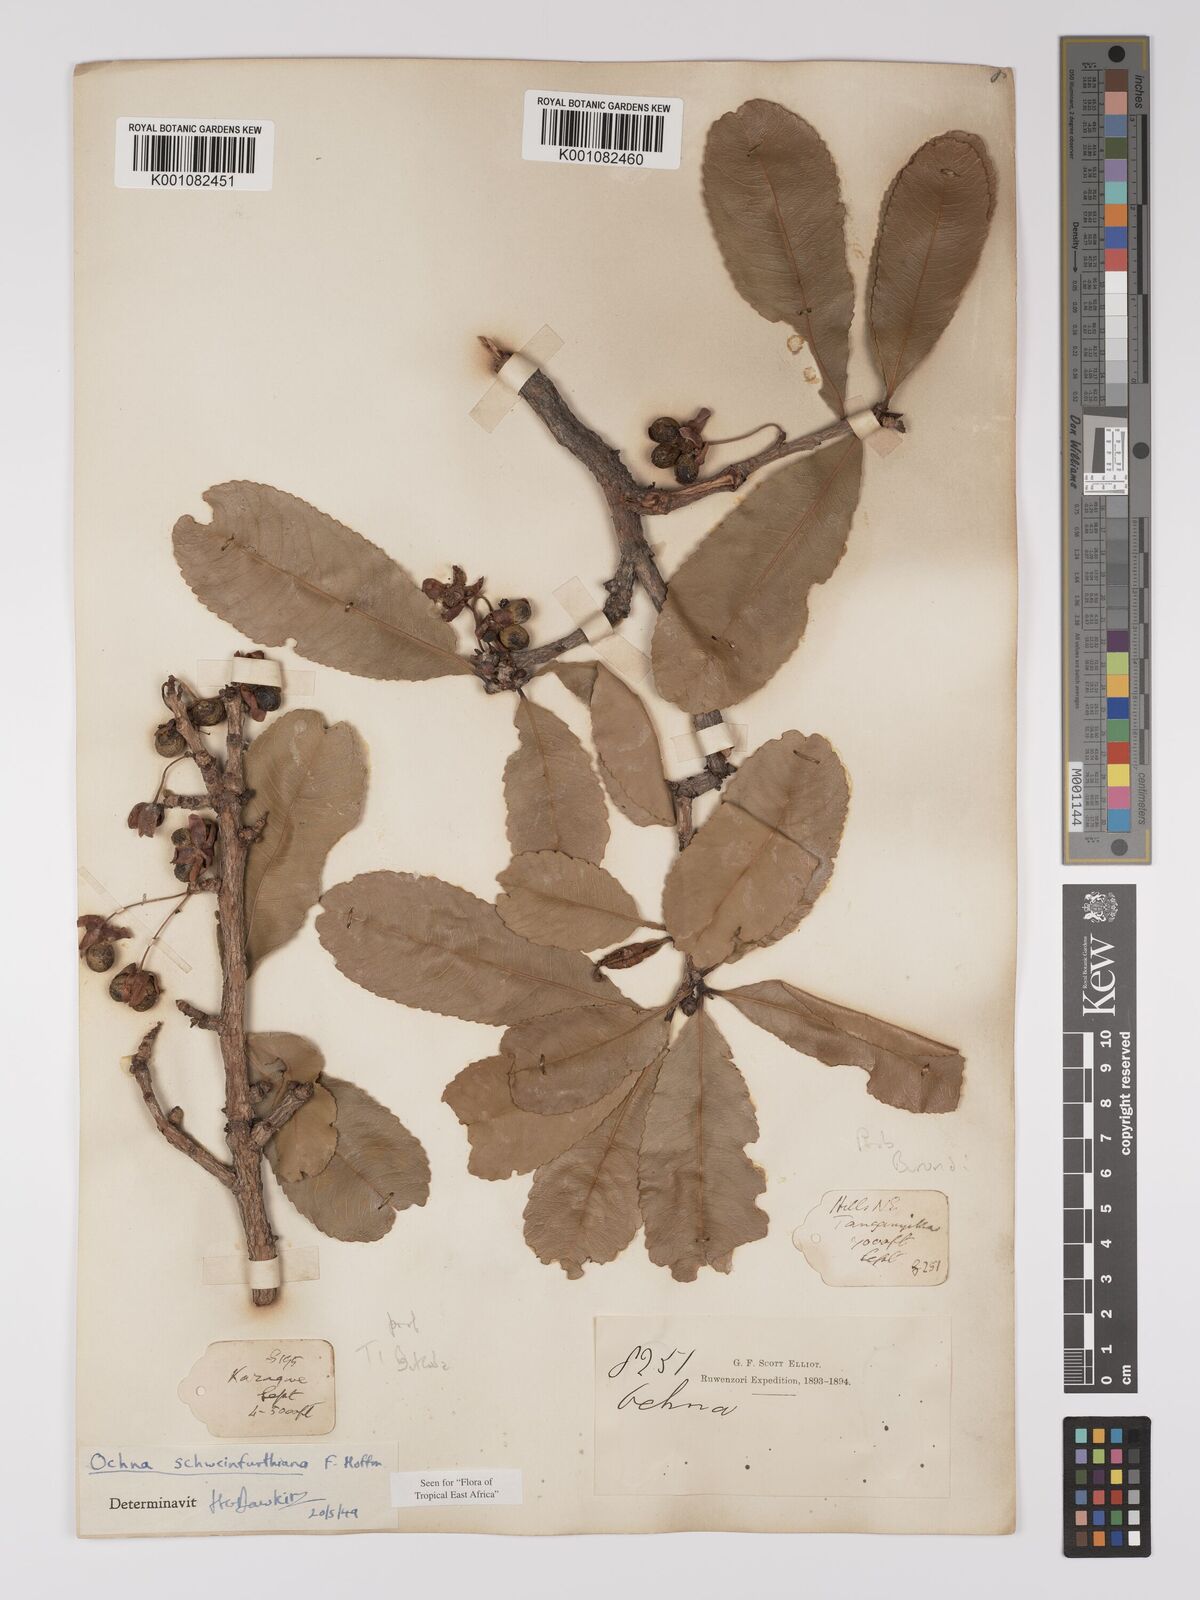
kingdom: Plantae
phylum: Tracheophyta
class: Magnoliopsida
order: Malpighiales
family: Ochnaceae
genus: Ochna
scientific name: Ochna schweinfurthiana
